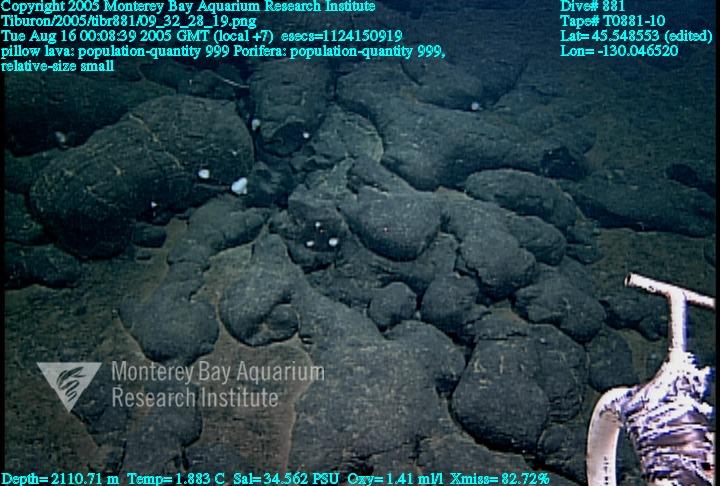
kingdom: Animalia
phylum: Porifera
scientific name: Porifera
